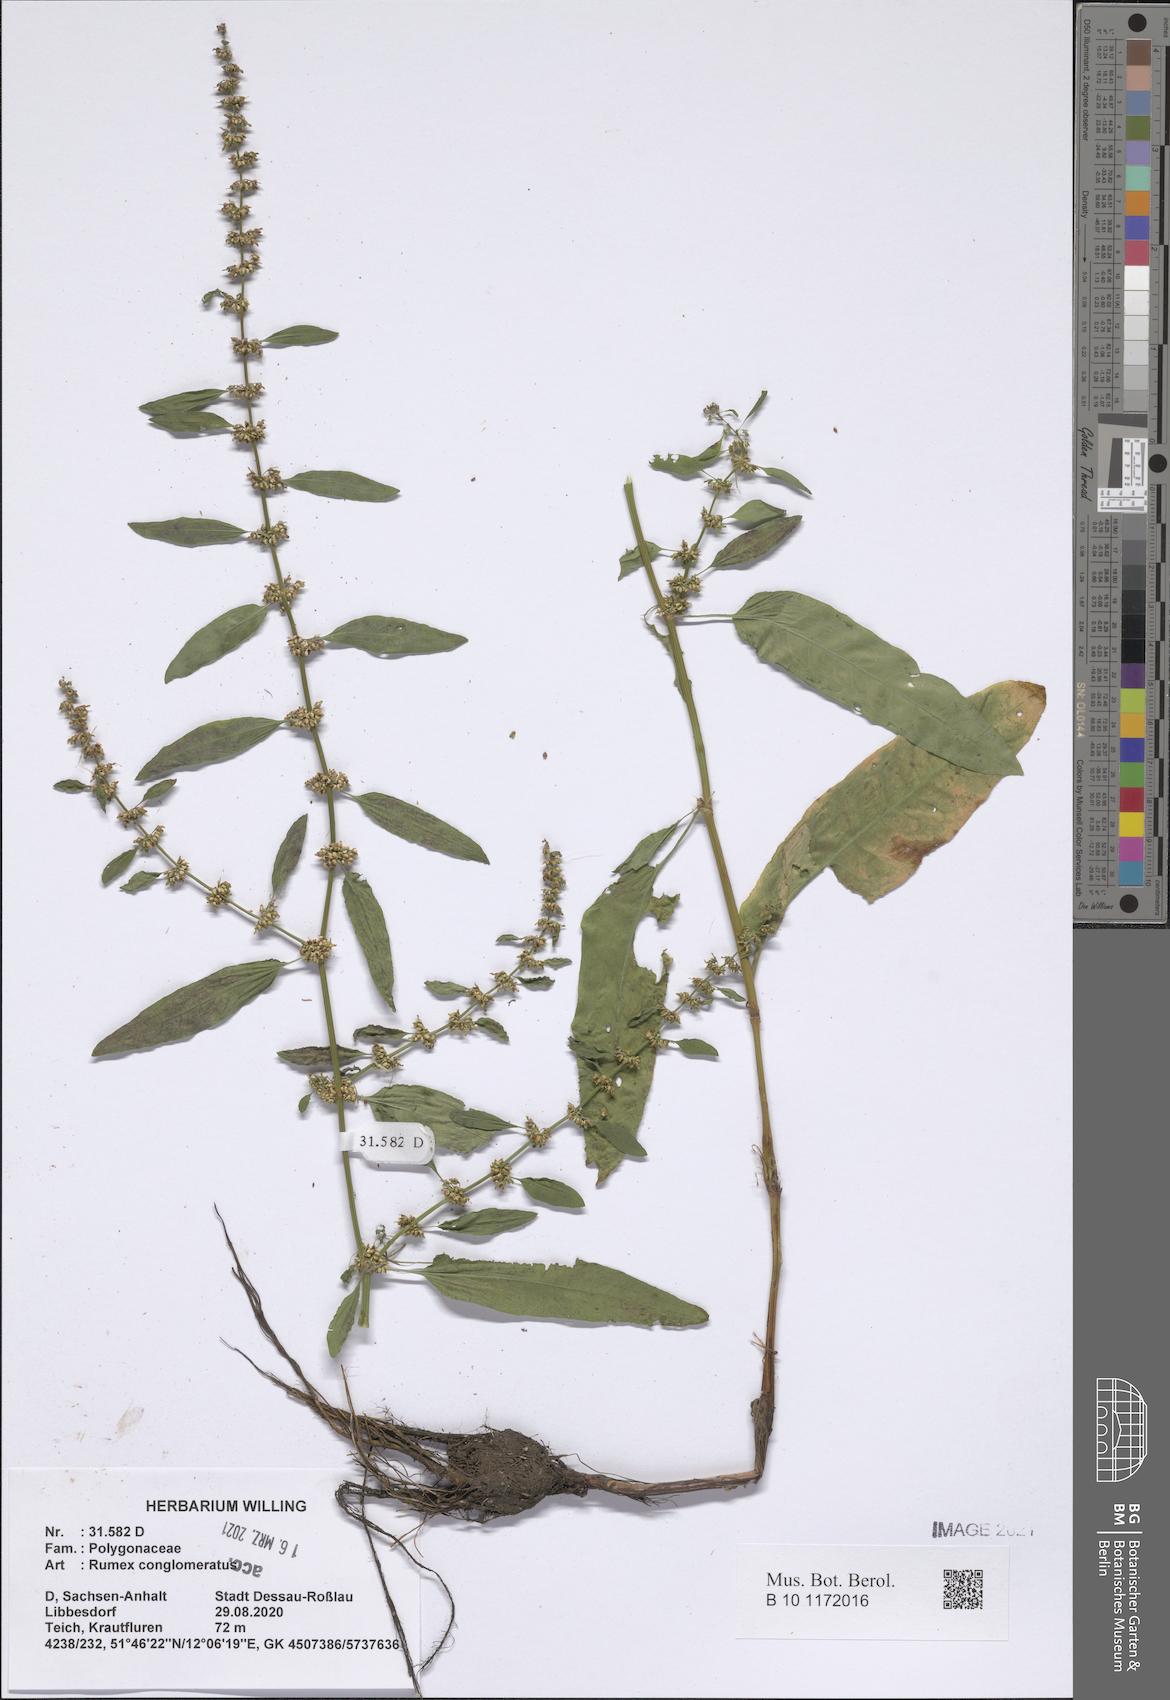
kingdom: Plantae
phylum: Tracheophyta
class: Magnoliopsida
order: Caryophyllales
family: Polygonaceae
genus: Rumex
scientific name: Rumex conglomeratus
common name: Clustered dock
